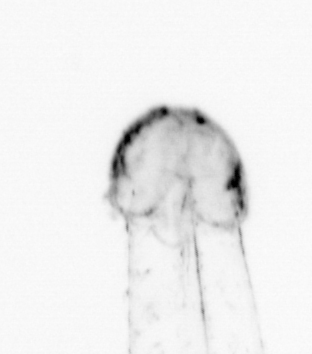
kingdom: Animalia
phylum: Chaetognatha
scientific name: Chaetognatha
